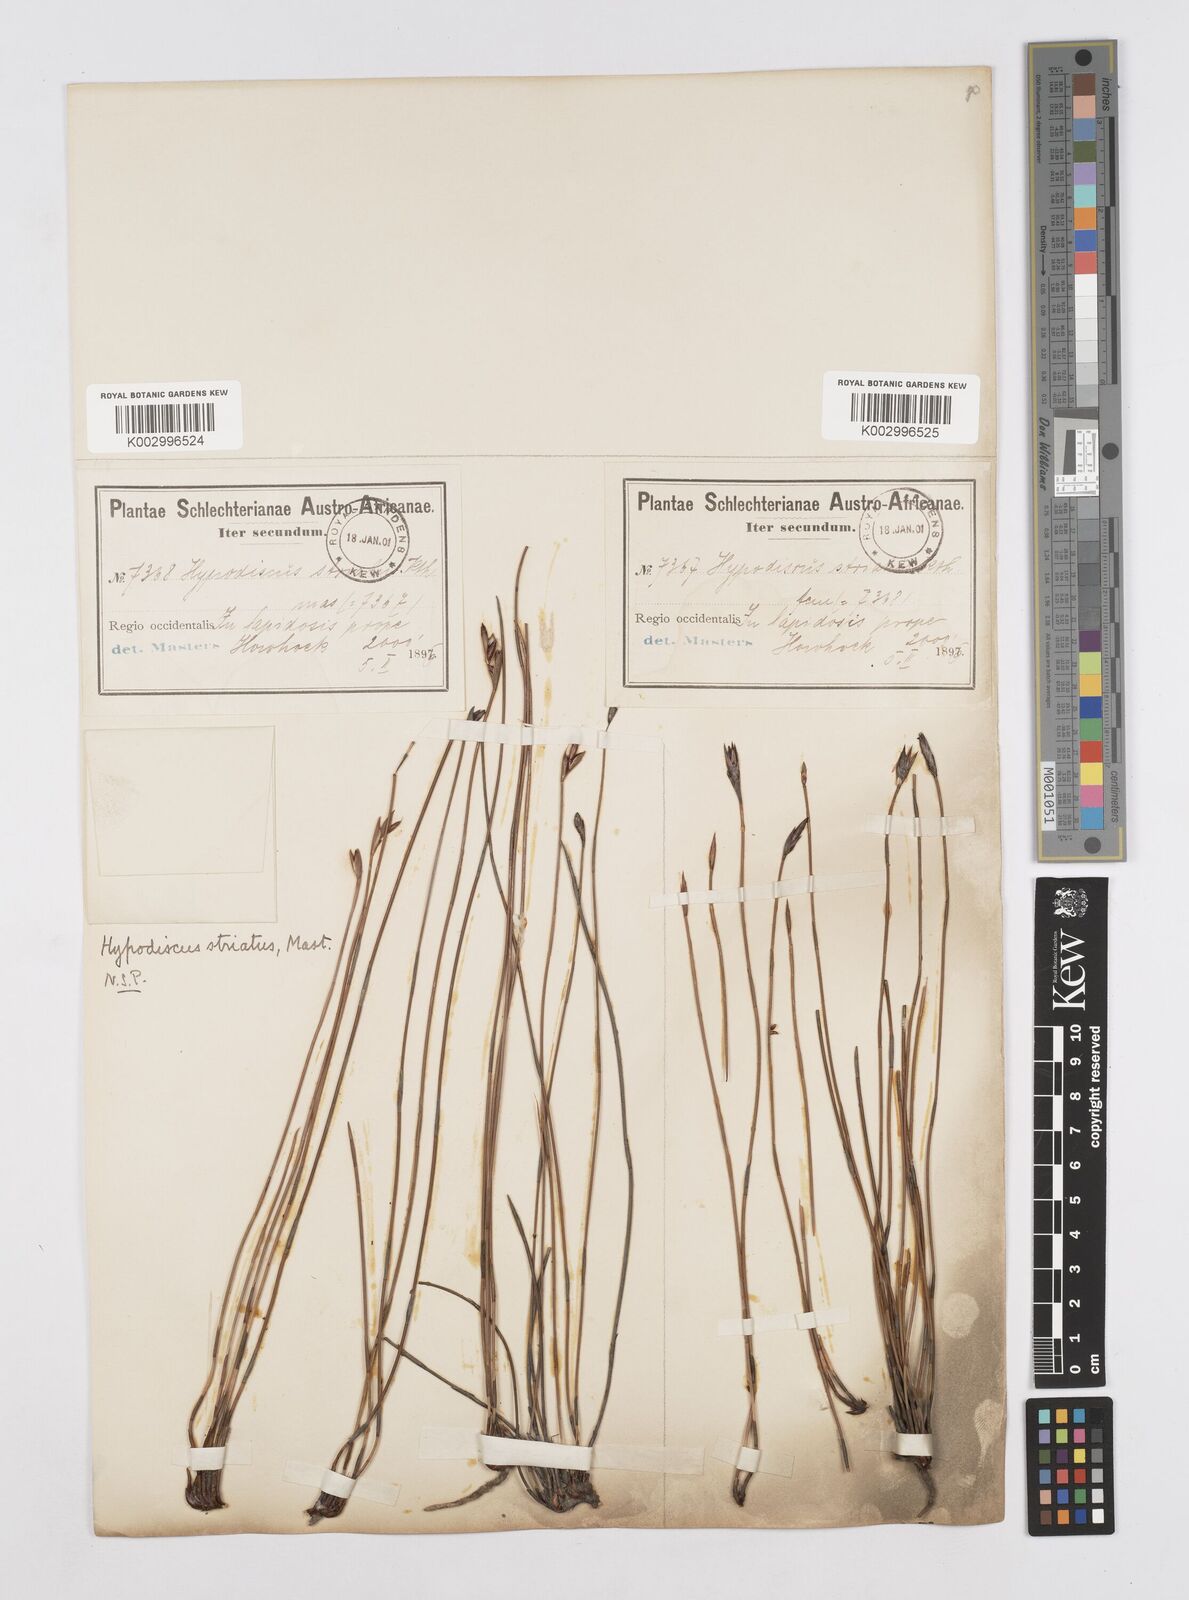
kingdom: Plantae
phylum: Tracheophyta
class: Liliopsida
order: Poales
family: Restionaceae
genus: Hypodiscus
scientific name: Hypodiscus striatus
